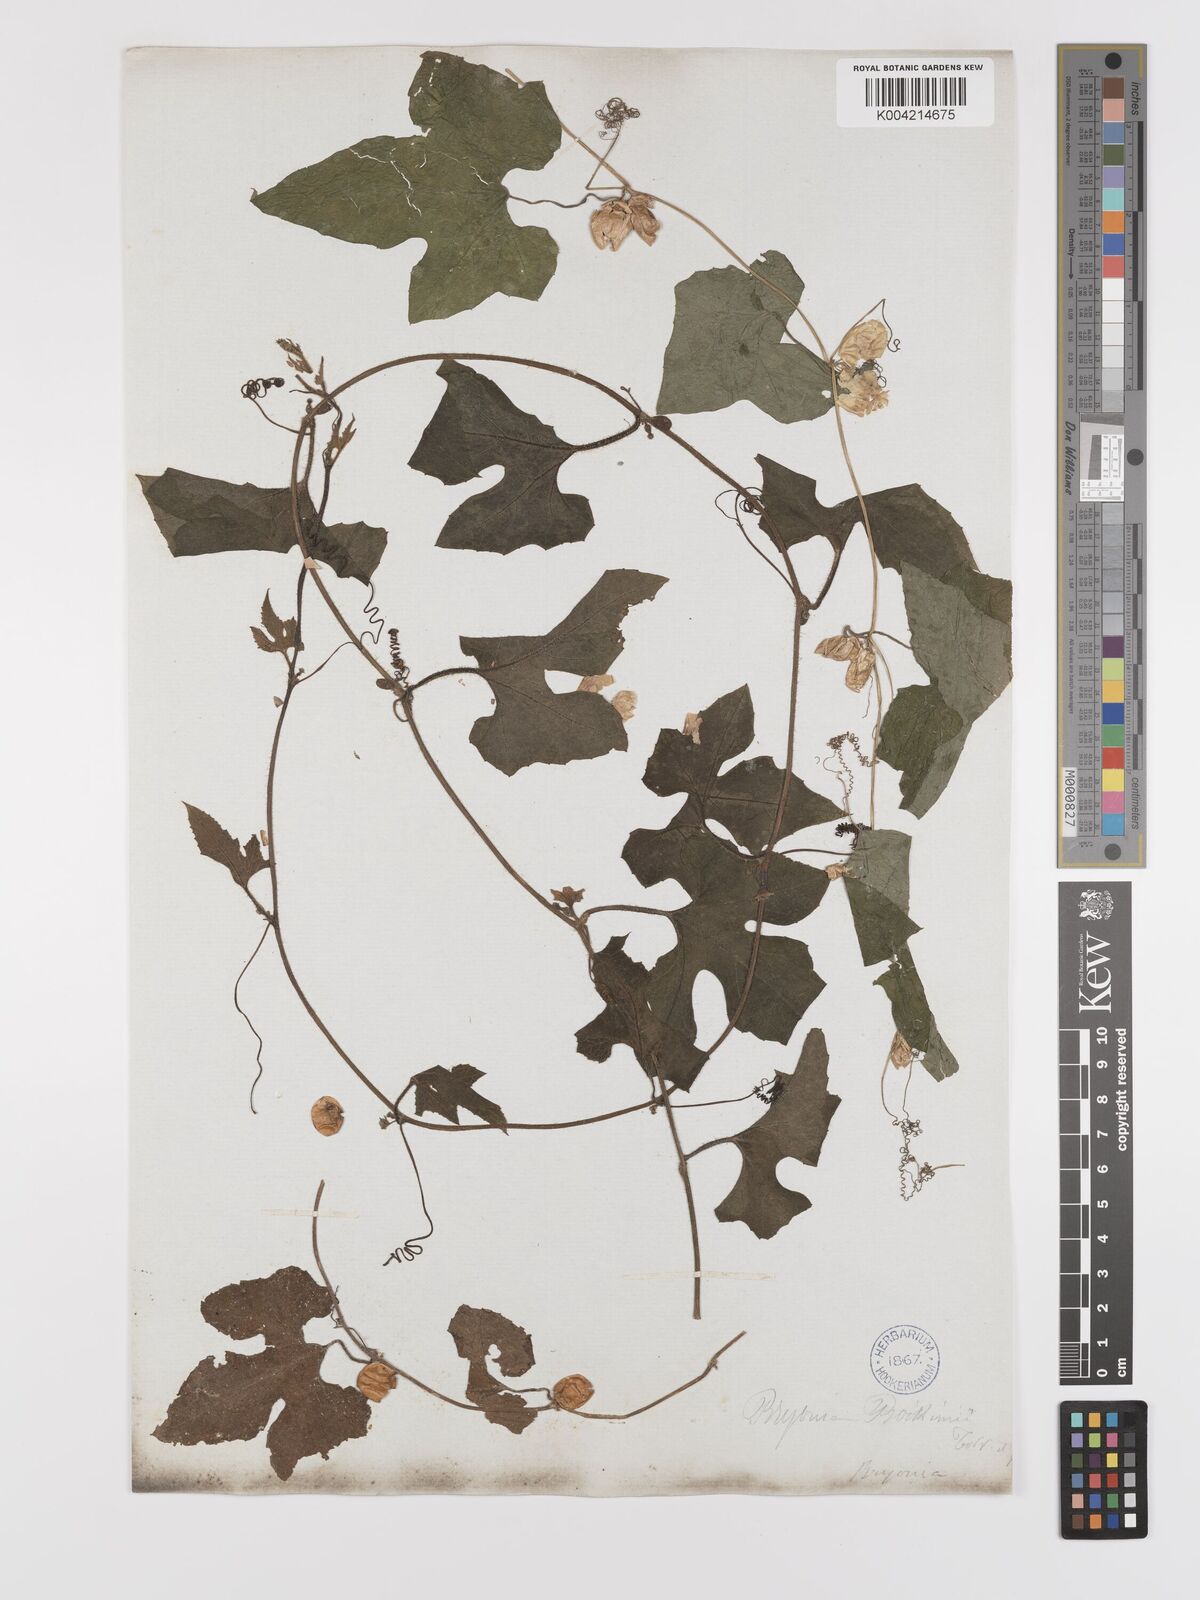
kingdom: Plantae
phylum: Tracheophyta
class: Magnoliopsida
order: Cucurbitales
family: Cucurbitaceae
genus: Cayaponia
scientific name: Cayaponia quinqueloba
